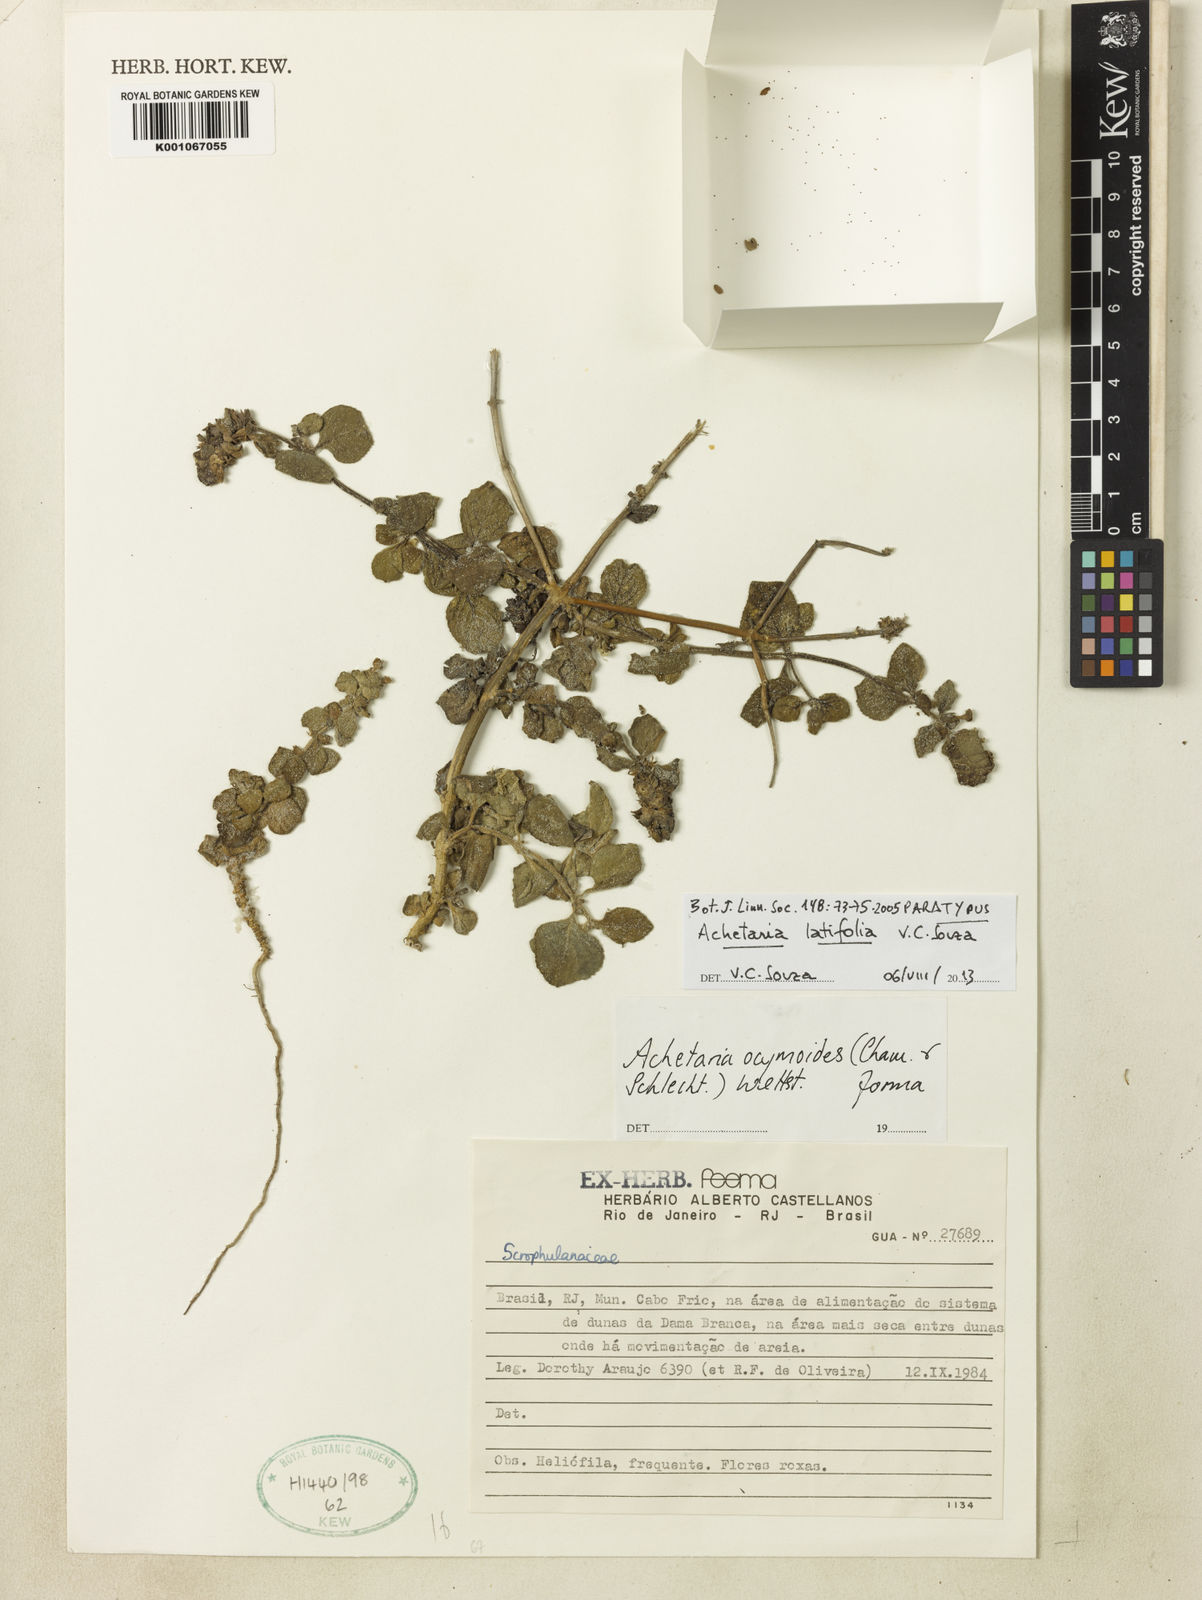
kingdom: Plantae
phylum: Tracheophyta
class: Magnoliopsida
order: Lamiales
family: Plantaginaceae
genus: Matourea
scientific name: Matourea latifolia
